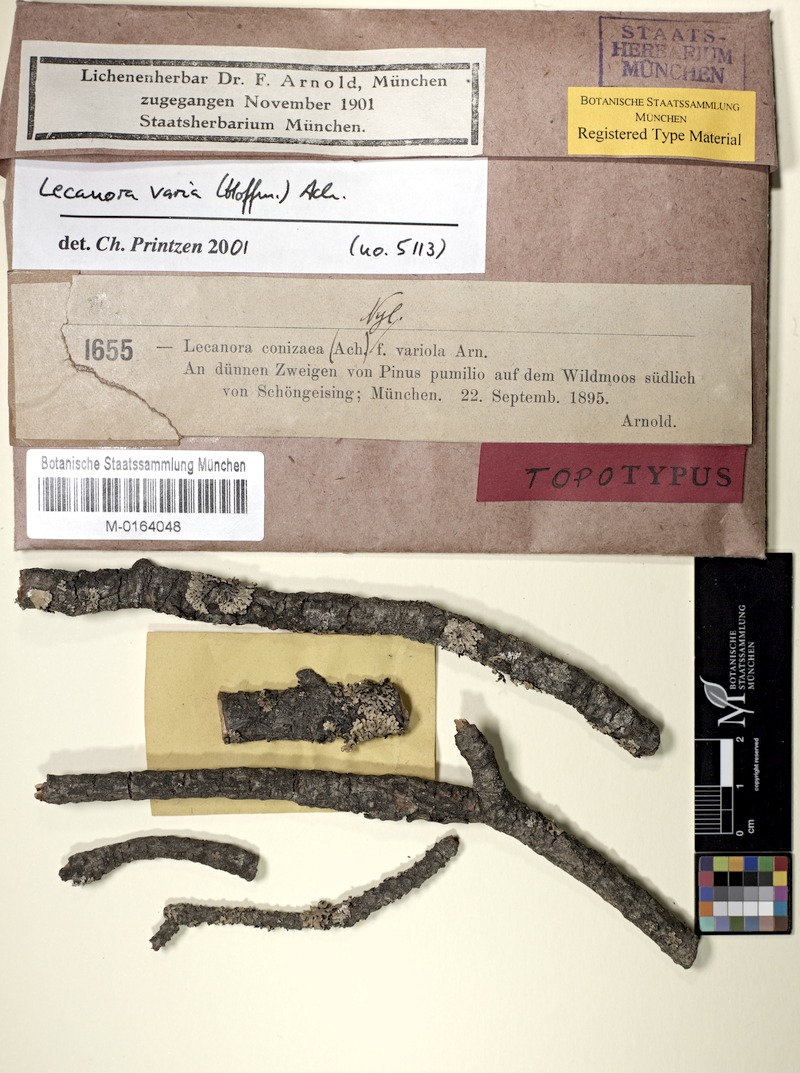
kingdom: Fungi
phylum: Ascomycota
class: Lecanoromycetes
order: Lecanorales
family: Lecanoraceae
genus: Straminella
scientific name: Straminella varia
